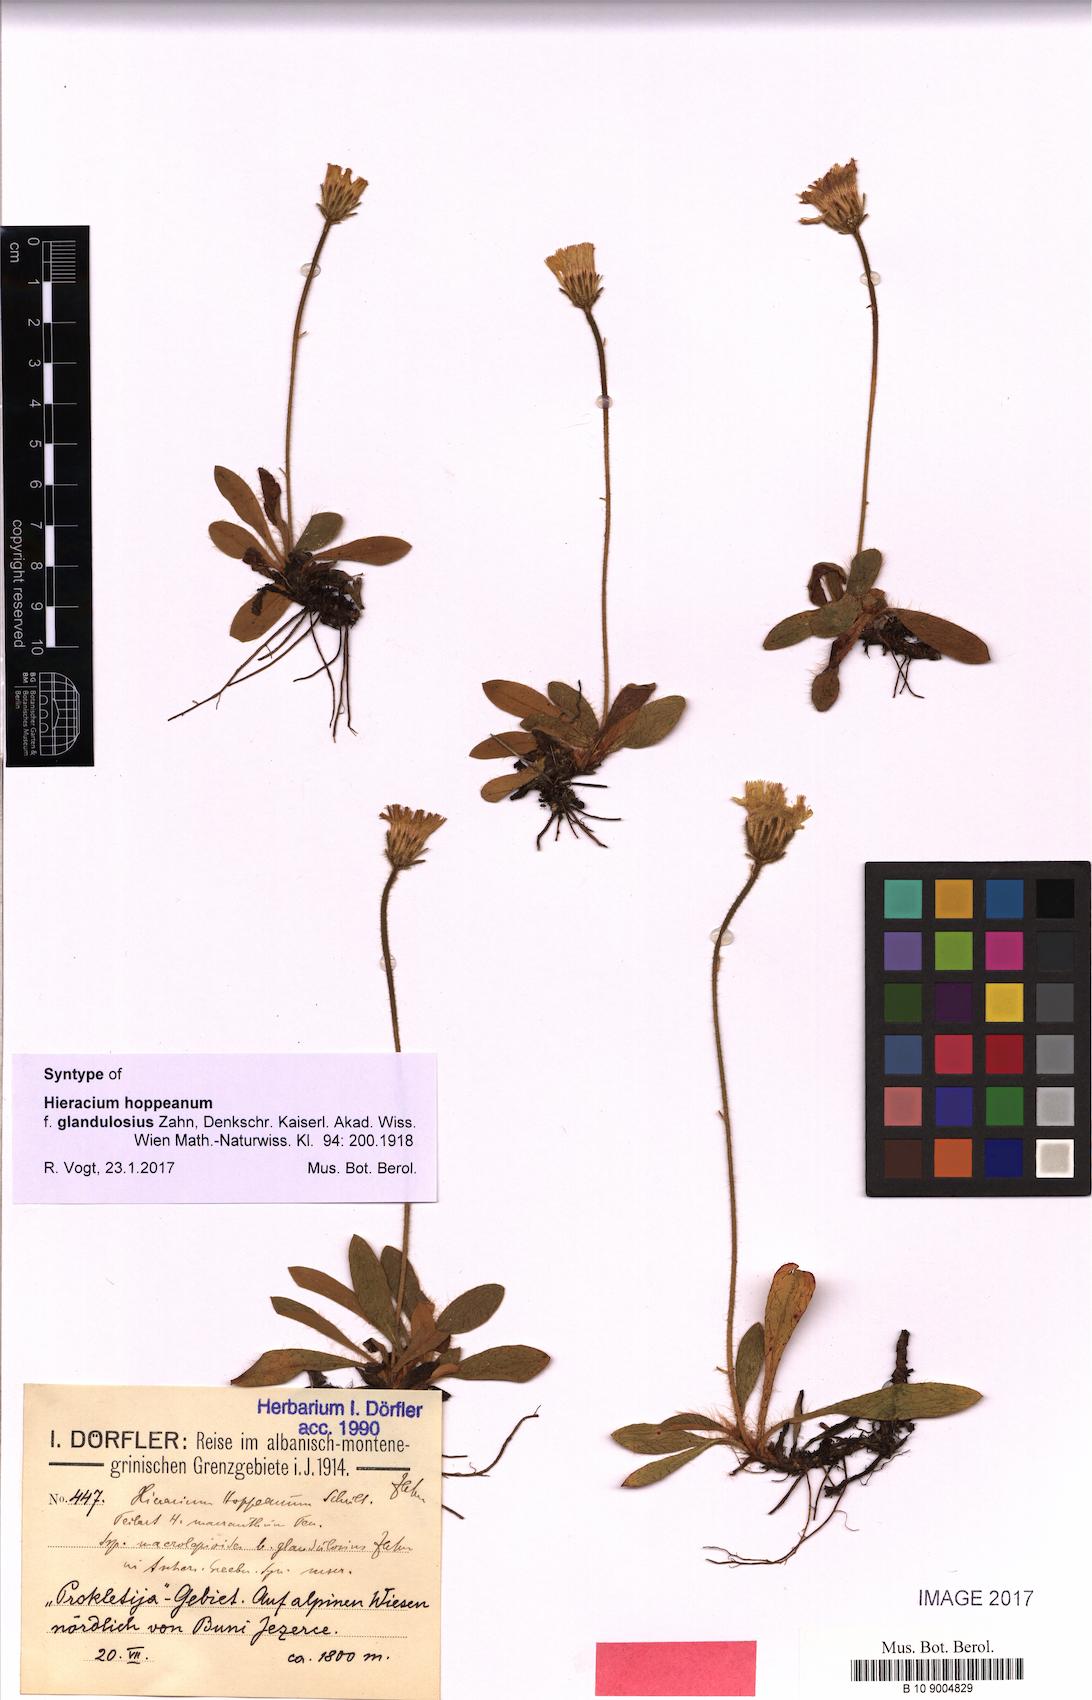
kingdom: Plantae
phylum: Tracheophyta
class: Magnoliopsida
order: Asterales
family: Asteraceae
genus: Pilosella
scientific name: Pilosella leucopsilon
